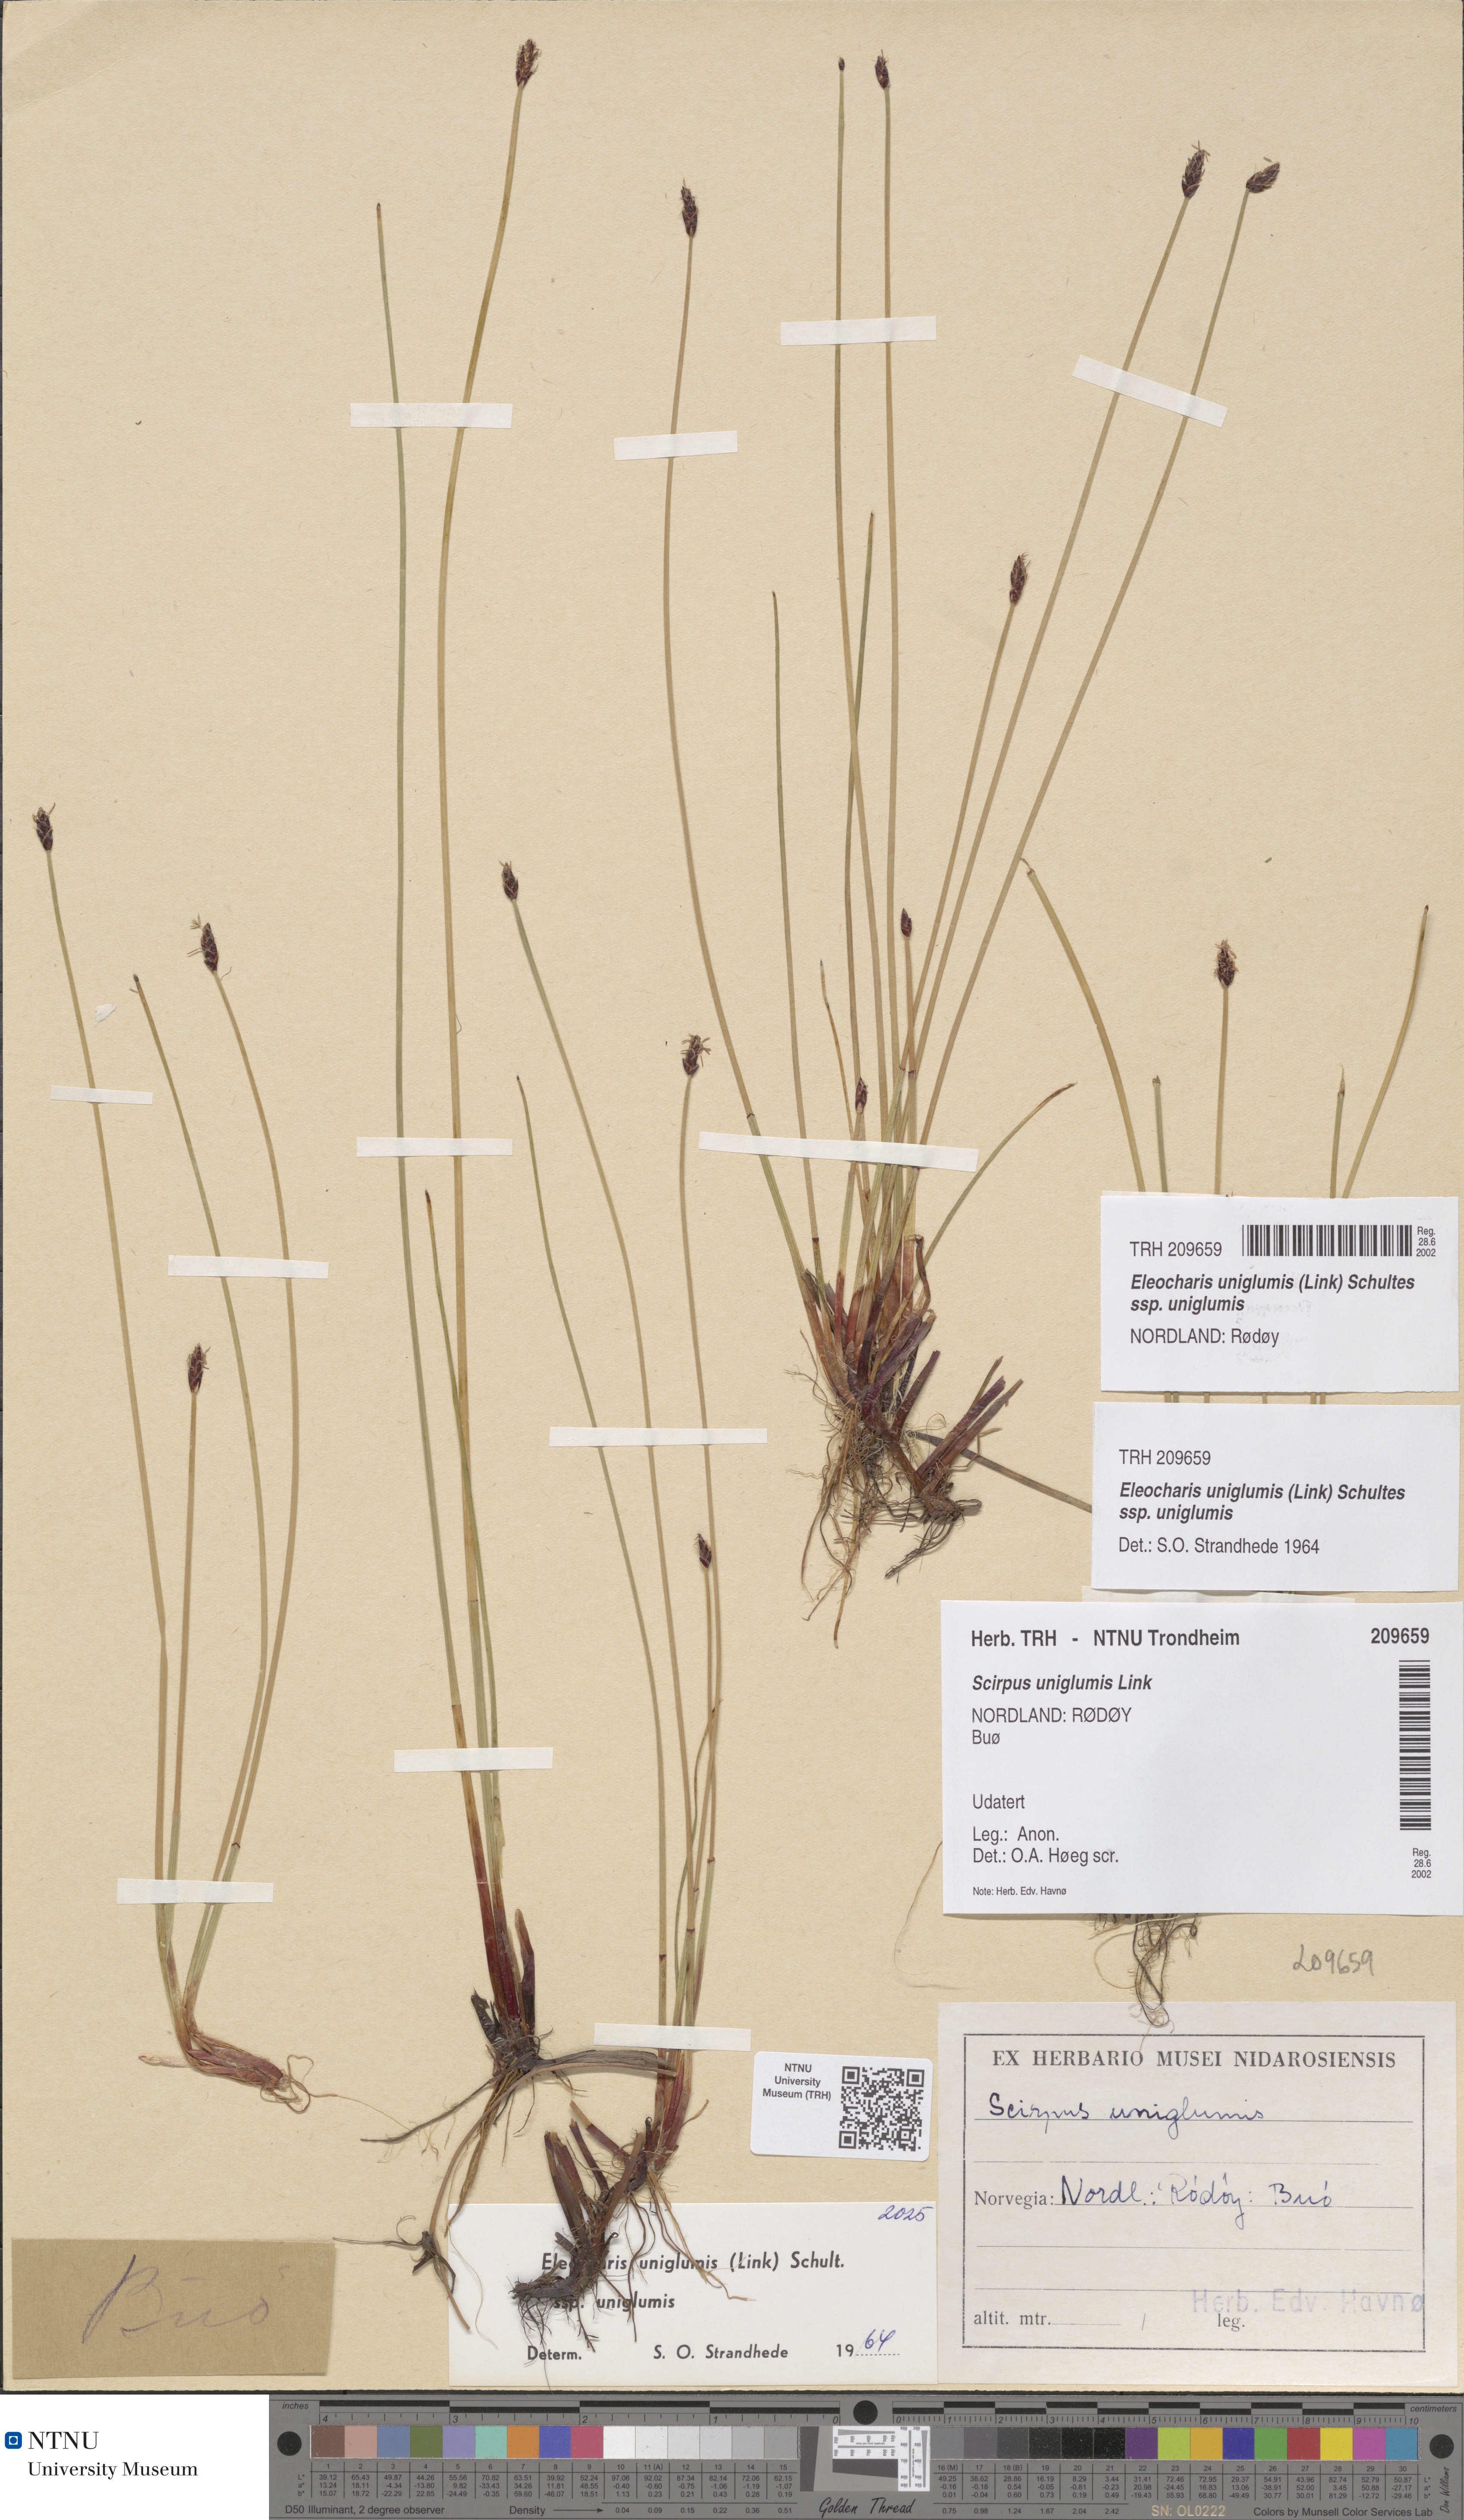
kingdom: Plantae
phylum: Tracheophyta
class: Liliopsida
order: Poales
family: Cyperaceae
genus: Eleocharis
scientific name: Eleocharis uniglumis
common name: Slender spike-rush
